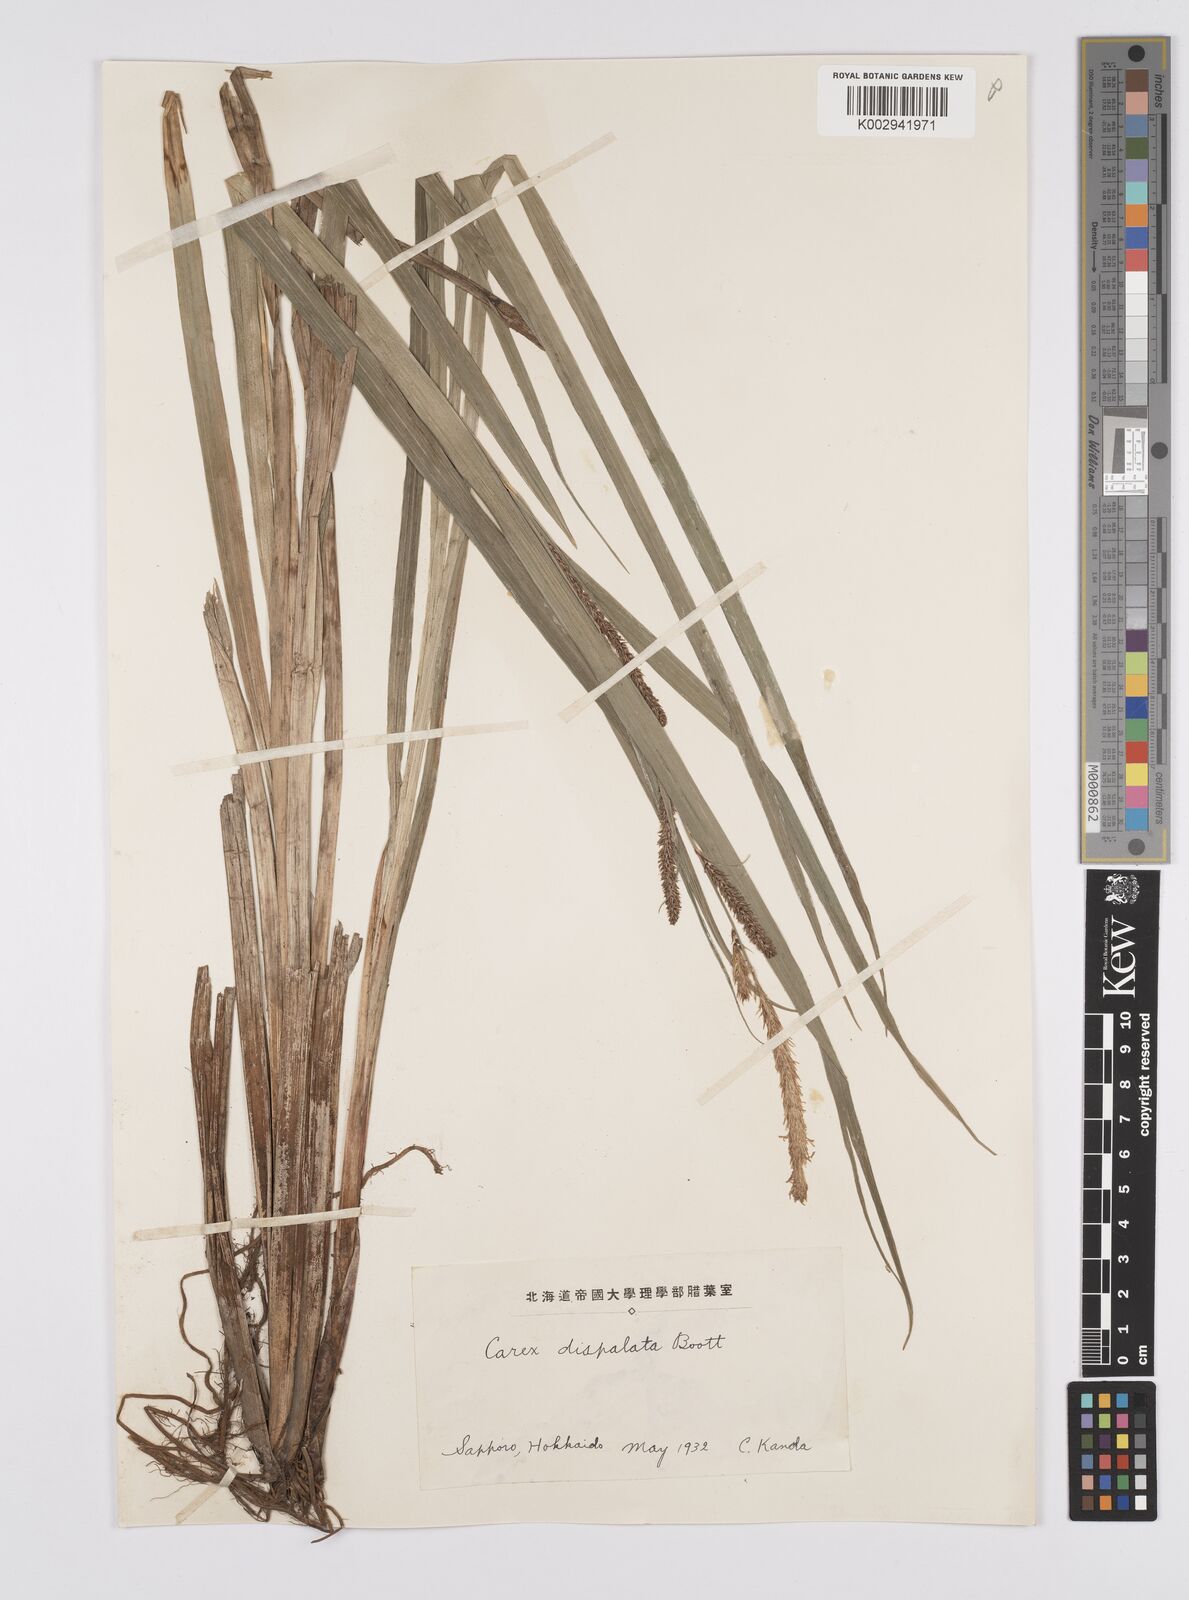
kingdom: Plantae
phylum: Tracheophyta
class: Liliopsida
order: Poales
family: Cyperaceae
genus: Carex
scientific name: Carex dispalata
